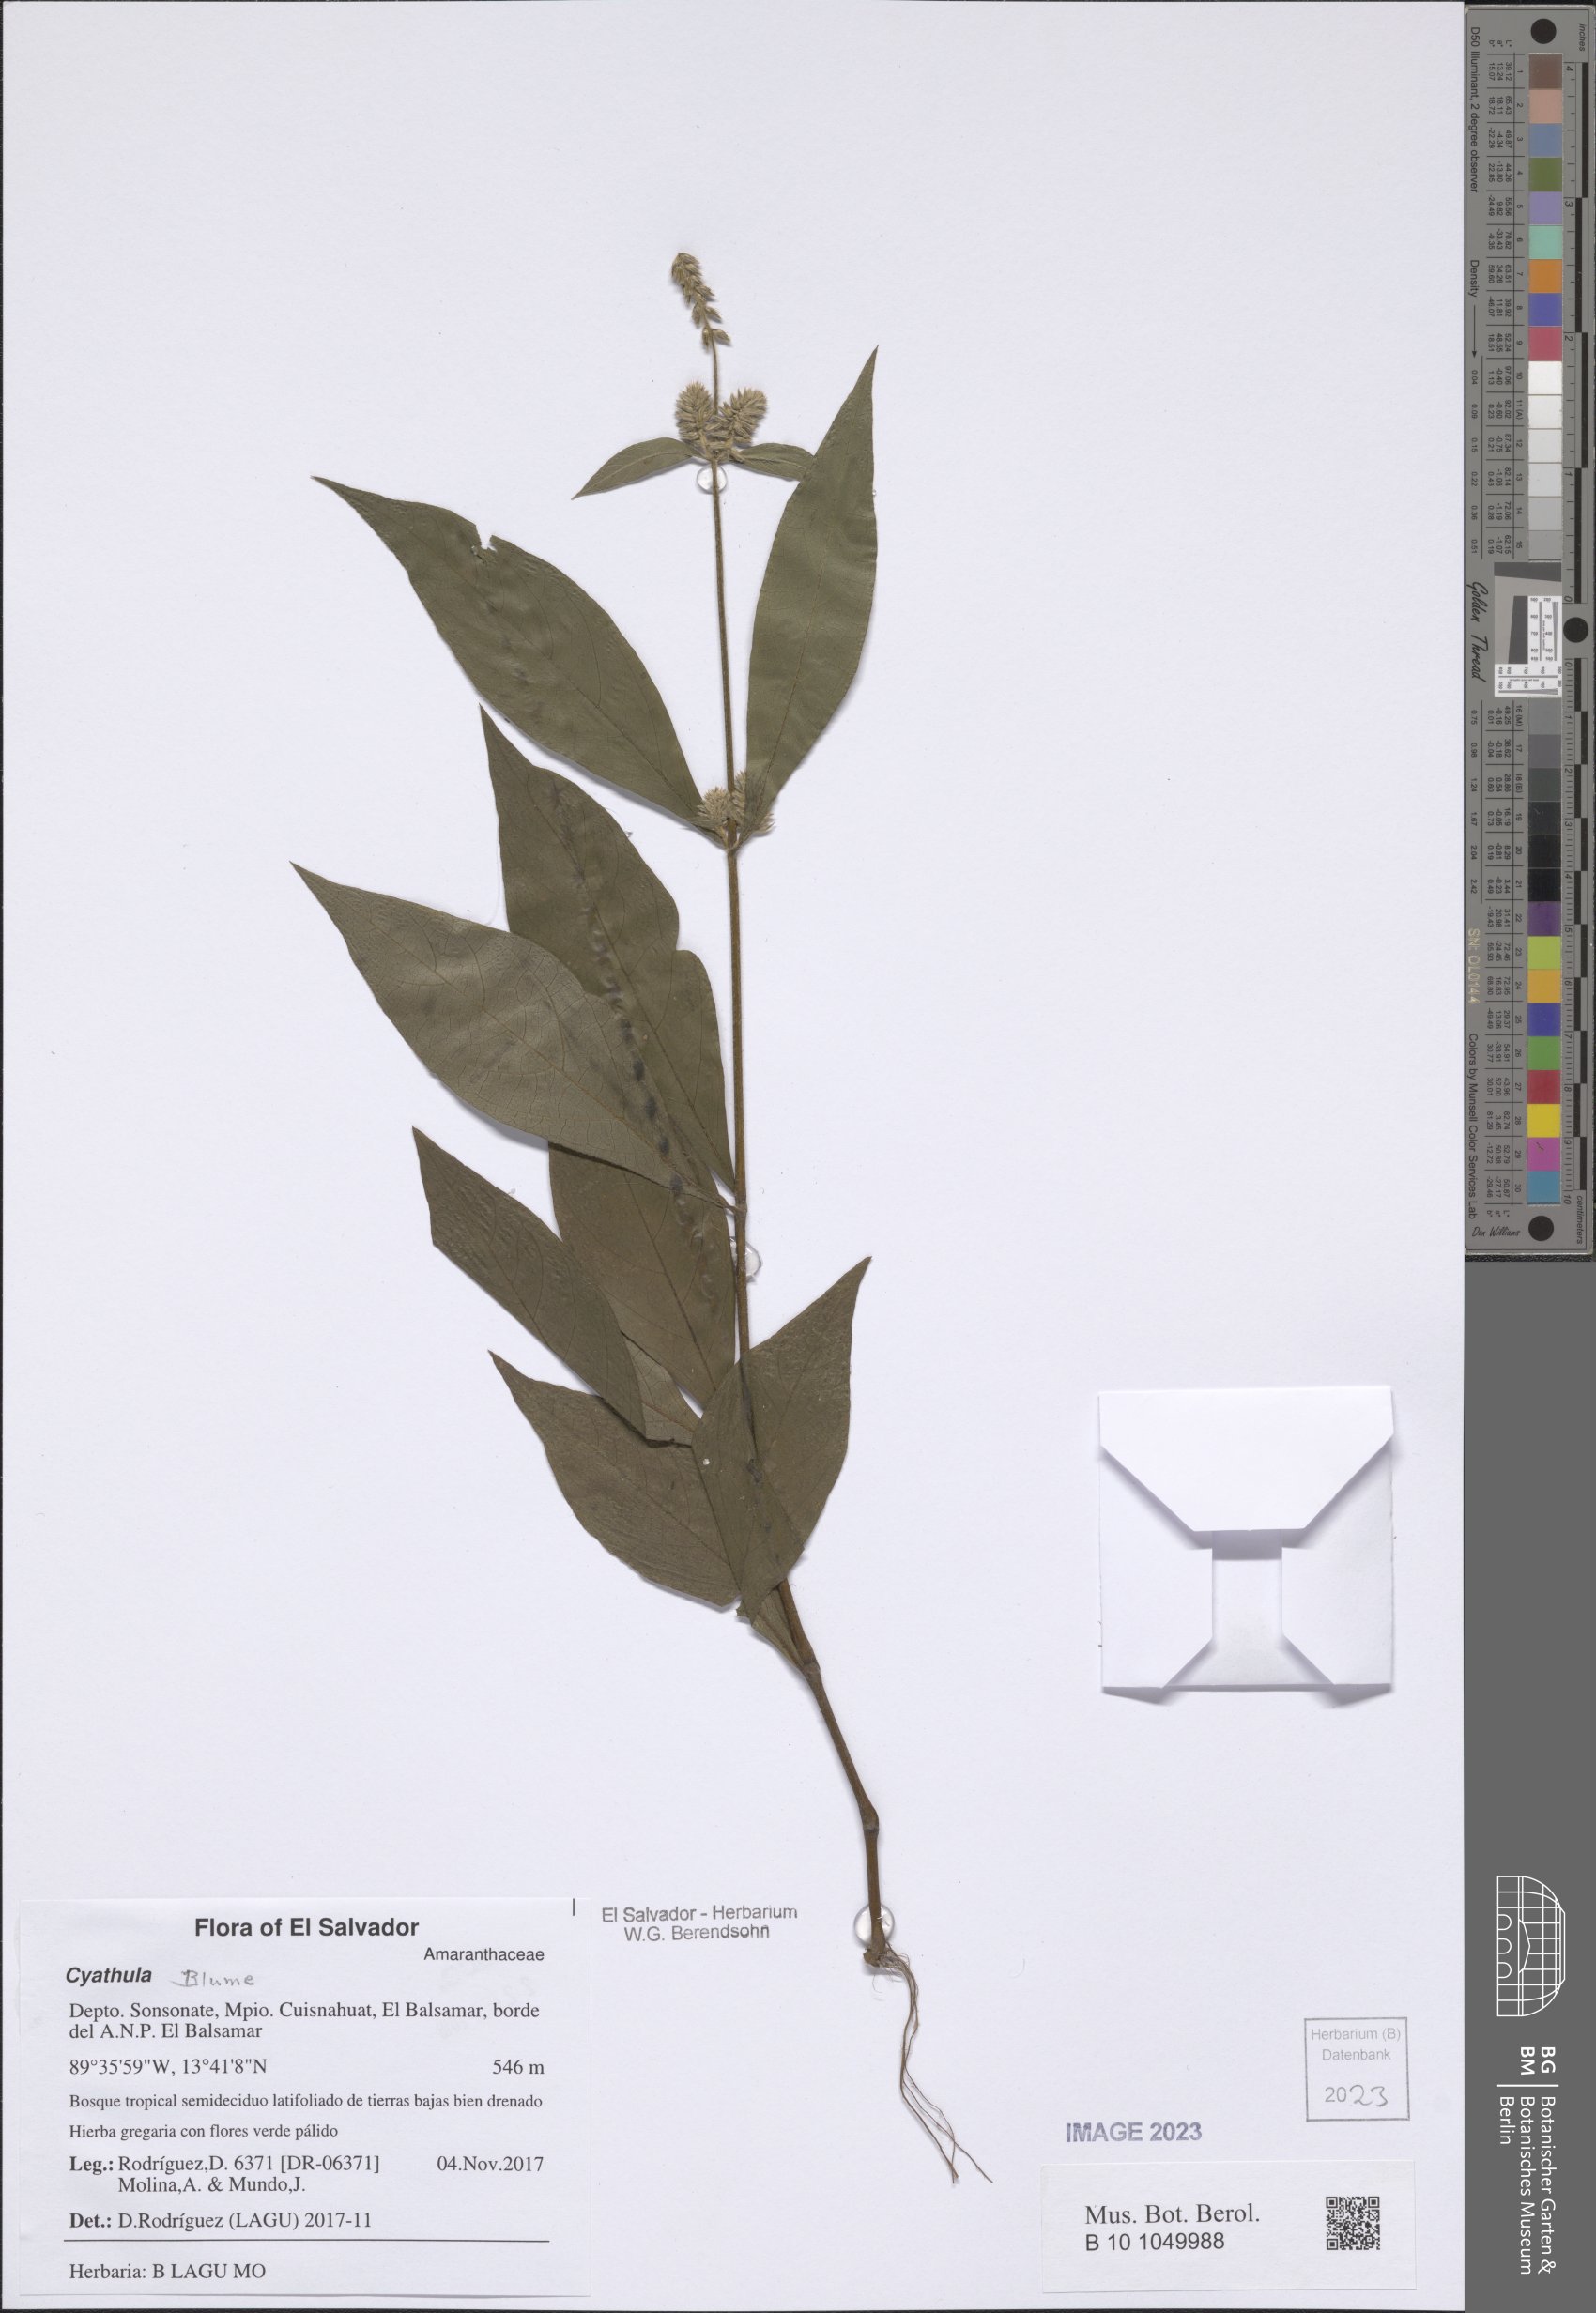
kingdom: Plantae
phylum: Tracheophyta
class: Magnoliopsida
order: Caryophyllales
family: Amaranthaceae
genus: Cyathula
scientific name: Cyathula
